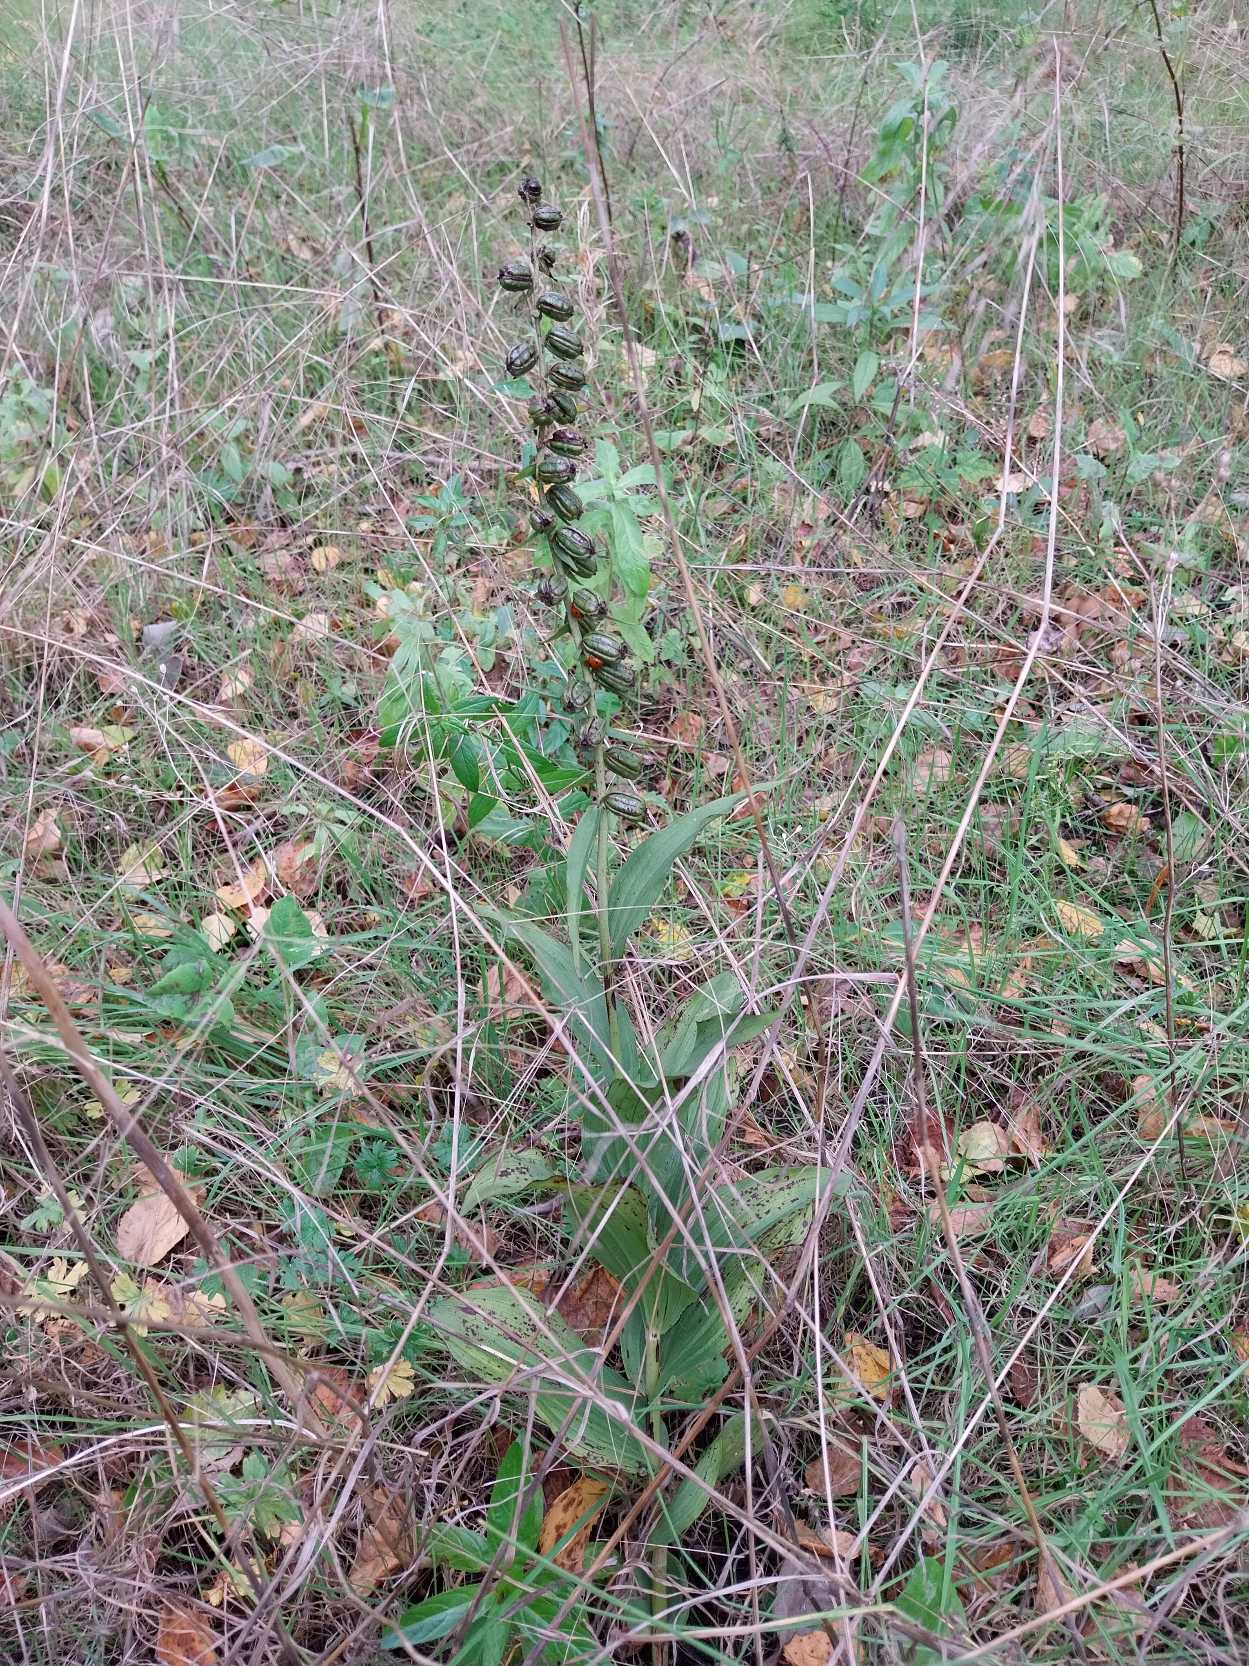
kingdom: Plantae
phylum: Tracheophyta
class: Liliopsida
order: Asparagales
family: Orchidaceae
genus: Epipactis
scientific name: Epipactis helleborine
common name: Skov-hullæbe
